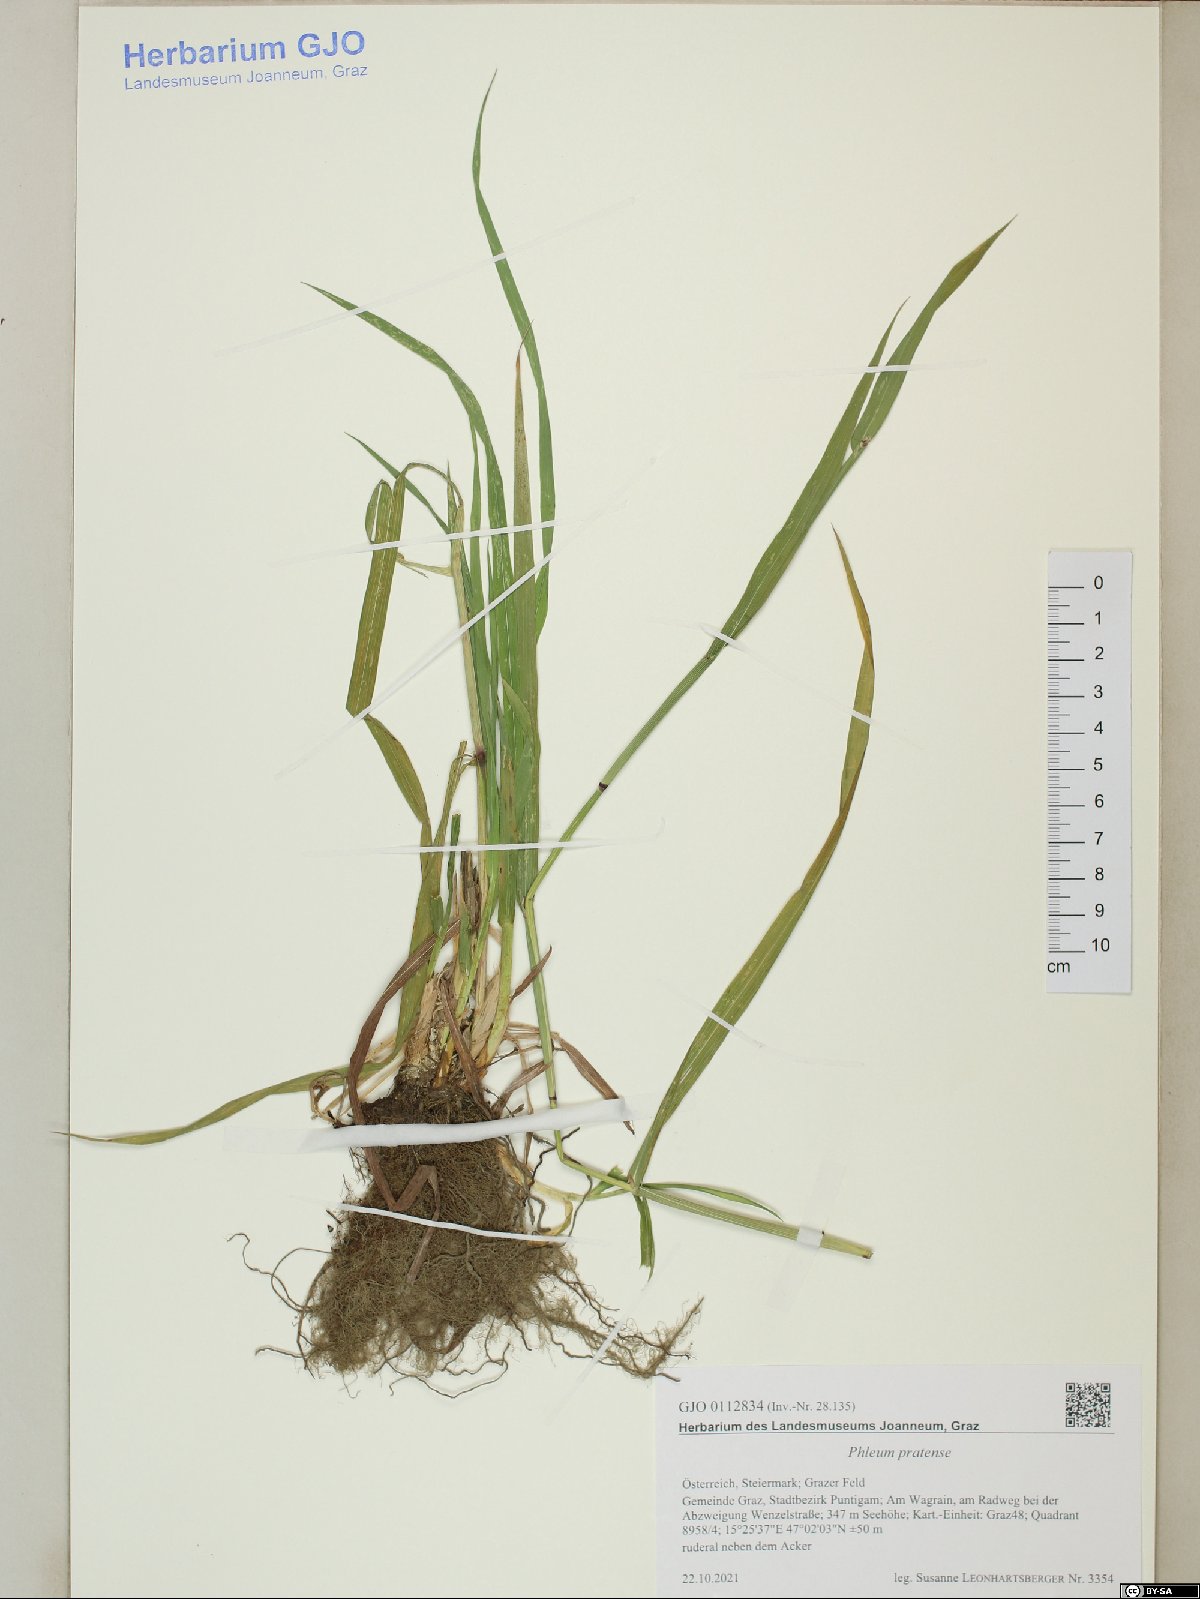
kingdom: Plantae
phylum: Tracheophyta
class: Liliopsida
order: Poales
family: Poaceae
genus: Phleum
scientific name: Phleum pratense
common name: Timothy grass
